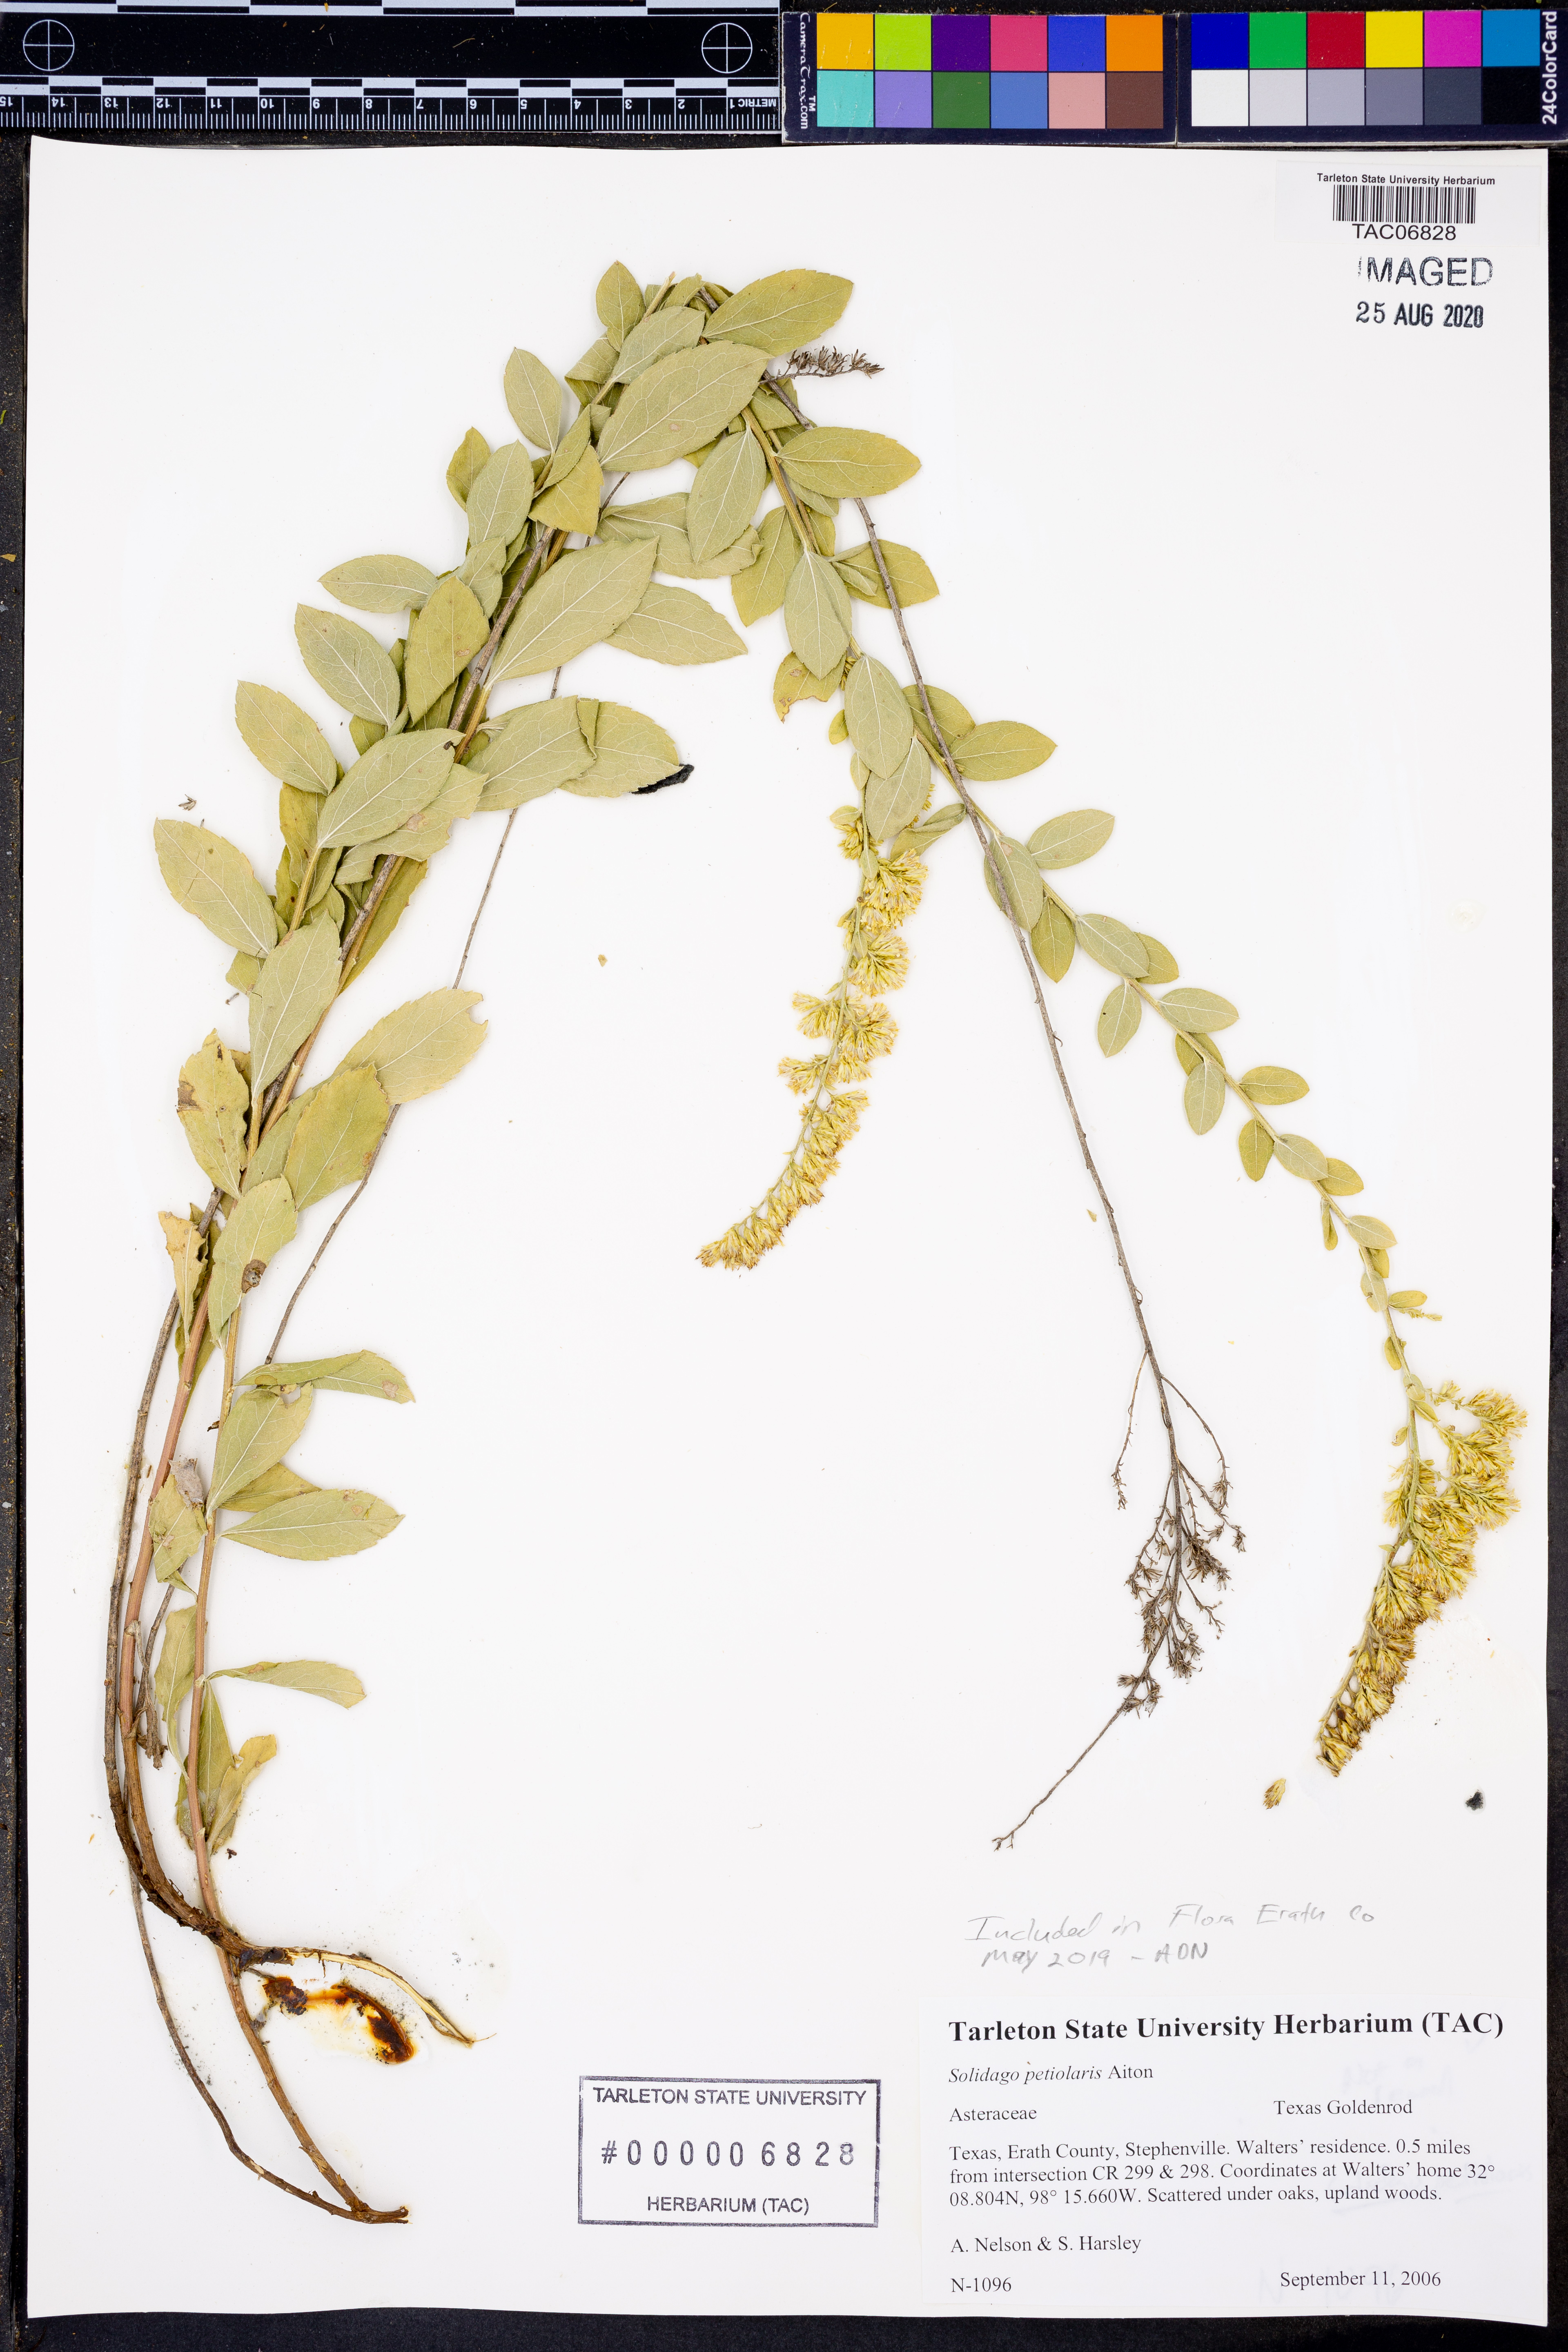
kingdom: Plantae
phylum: Tracheophyta
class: Magnoliopsida
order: Asterales
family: Asteraceae
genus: Solidago
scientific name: Solidago petiolaris
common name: Downy ragged goldenrod
